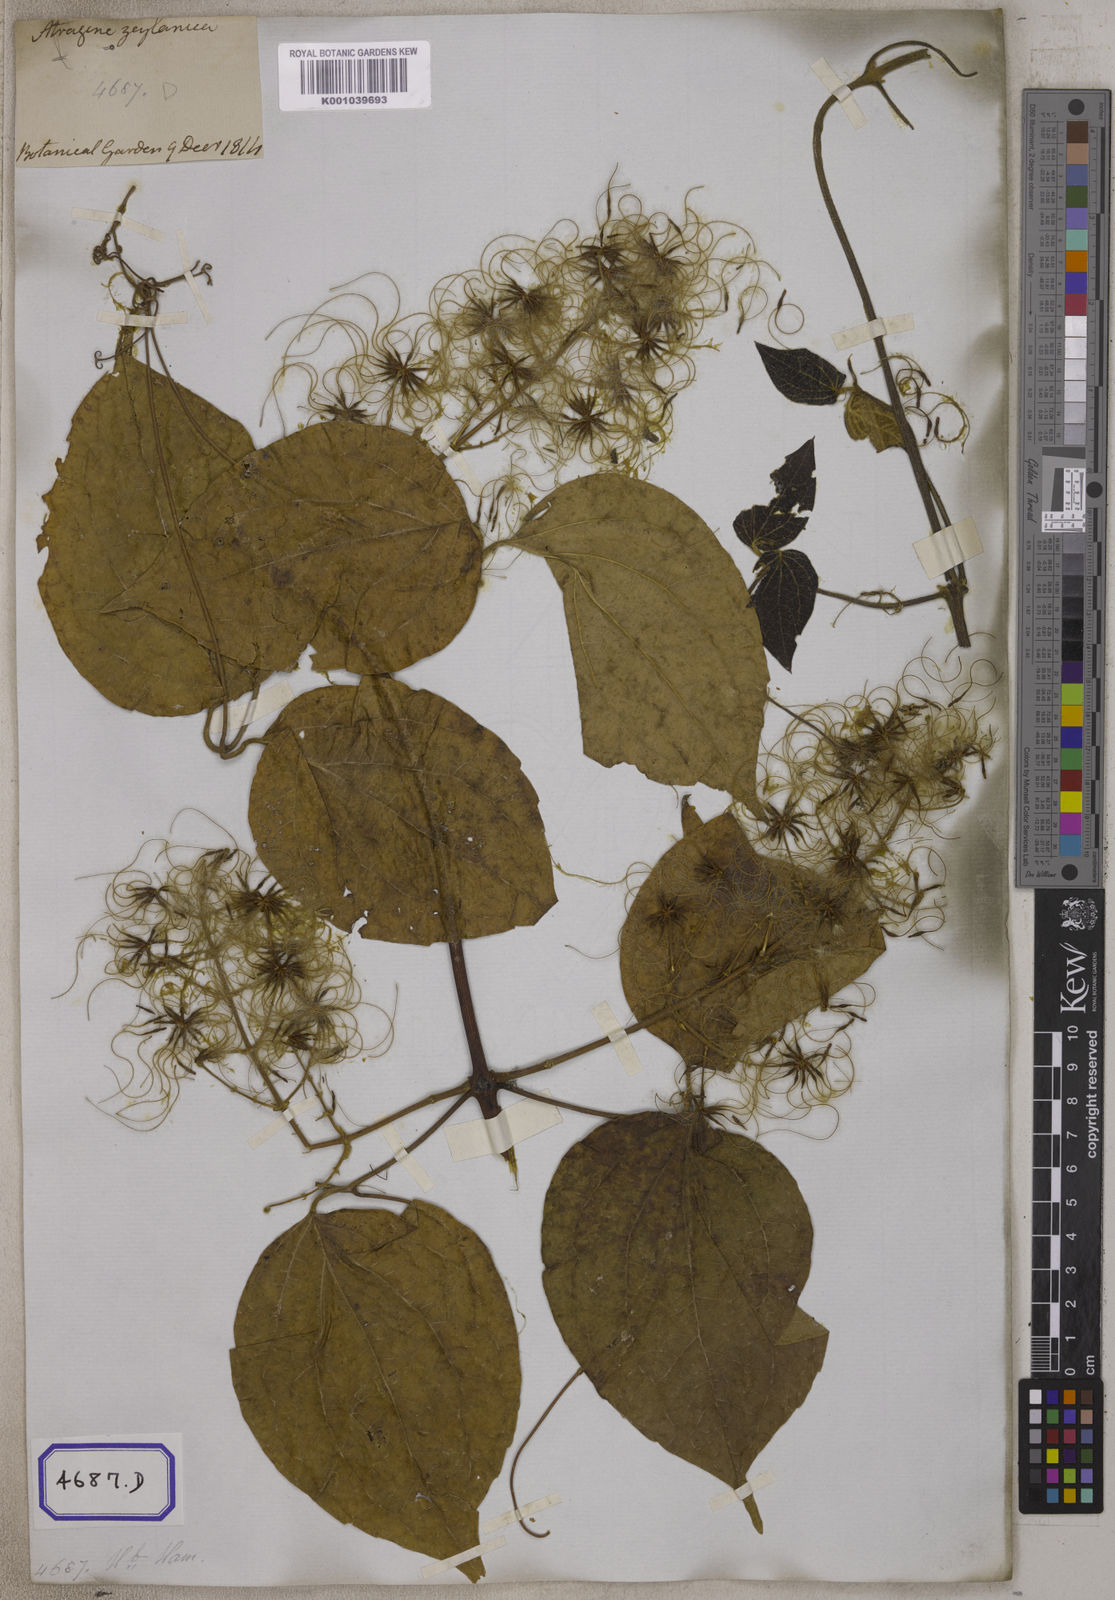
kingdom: Plantae
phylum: Tracheophyta
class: Magnoliopsida
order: Ranunculales
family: Ranunculaceae
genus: Clematis
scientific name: Clematis zeylanica
